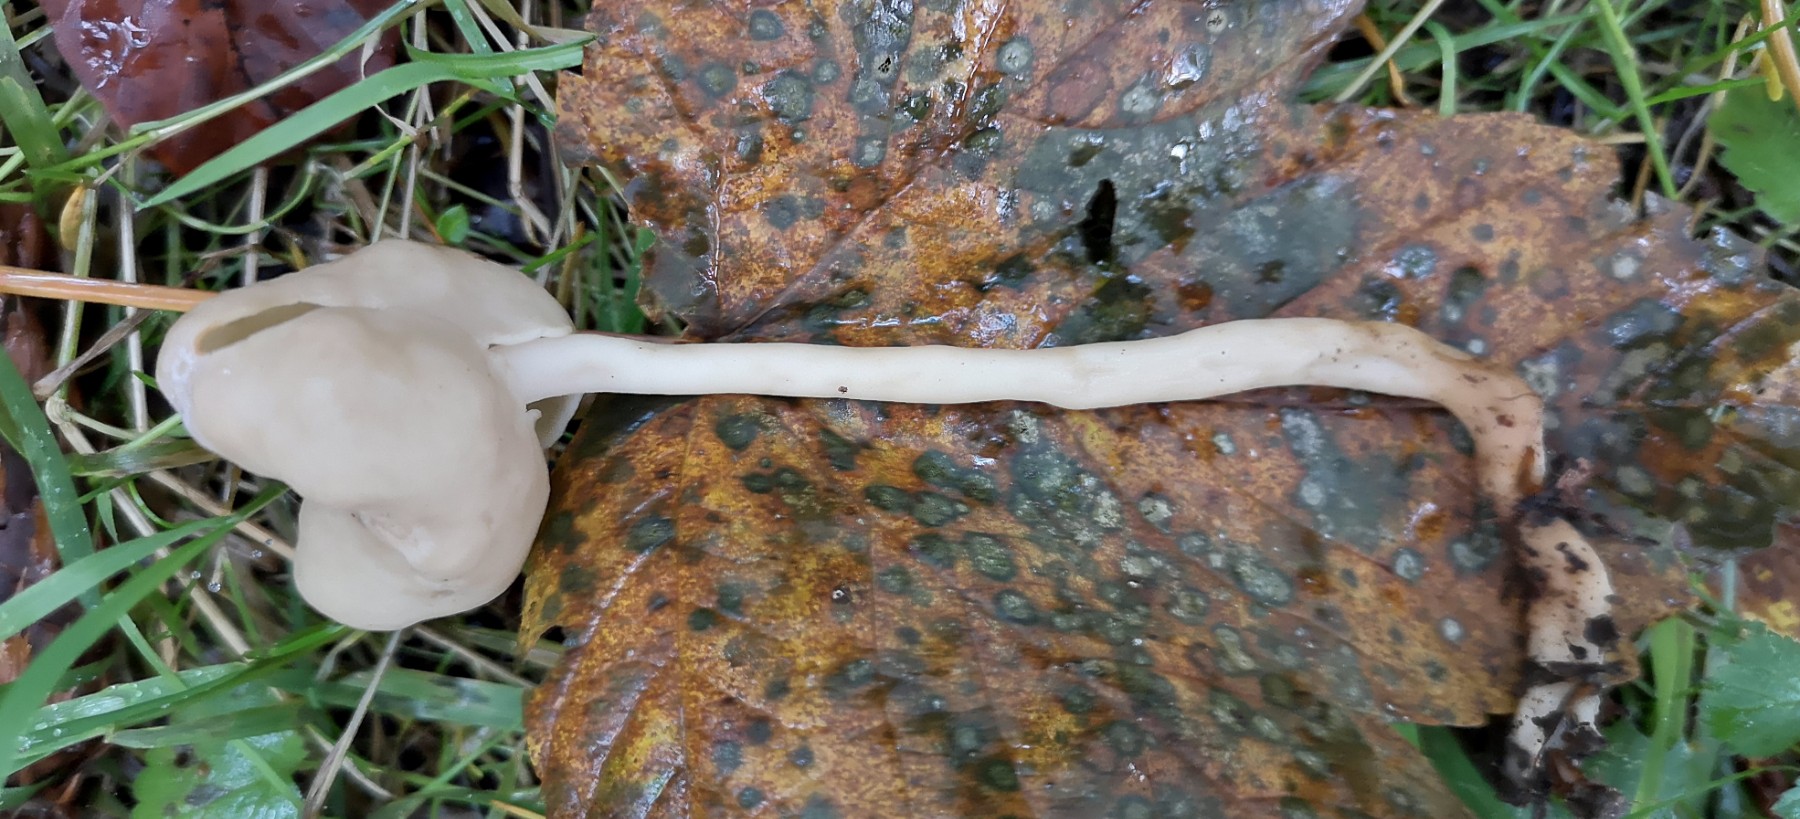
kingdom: Fungi
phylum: Ascomycota
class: Pezizomycetes
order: Pezizales
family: Helvellaceae
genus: Helvella
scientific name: Helvella elastica
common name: elastik-foldhat
